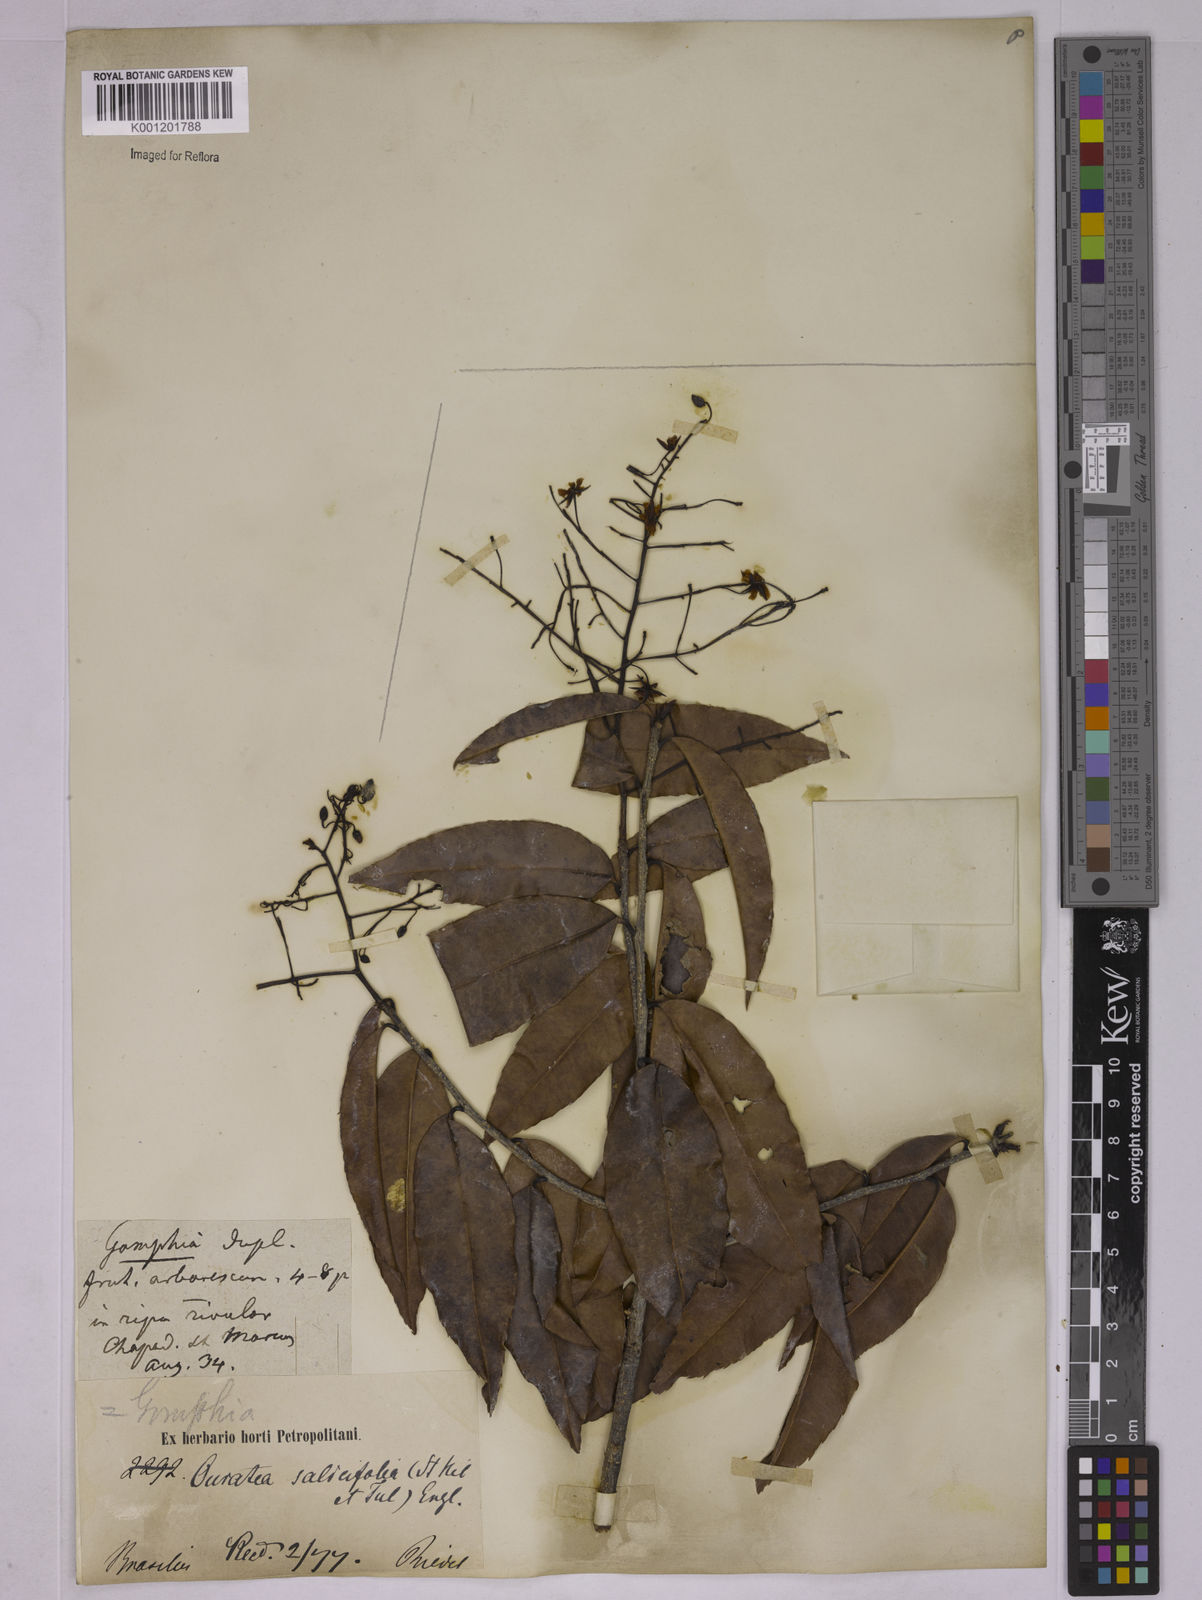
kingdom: Plantae
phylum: Tracheophyta
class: Magnoliopsida
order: Malpighiales
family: Ochnaceae
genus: Ouratea
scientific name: Ouratea salicifolia
